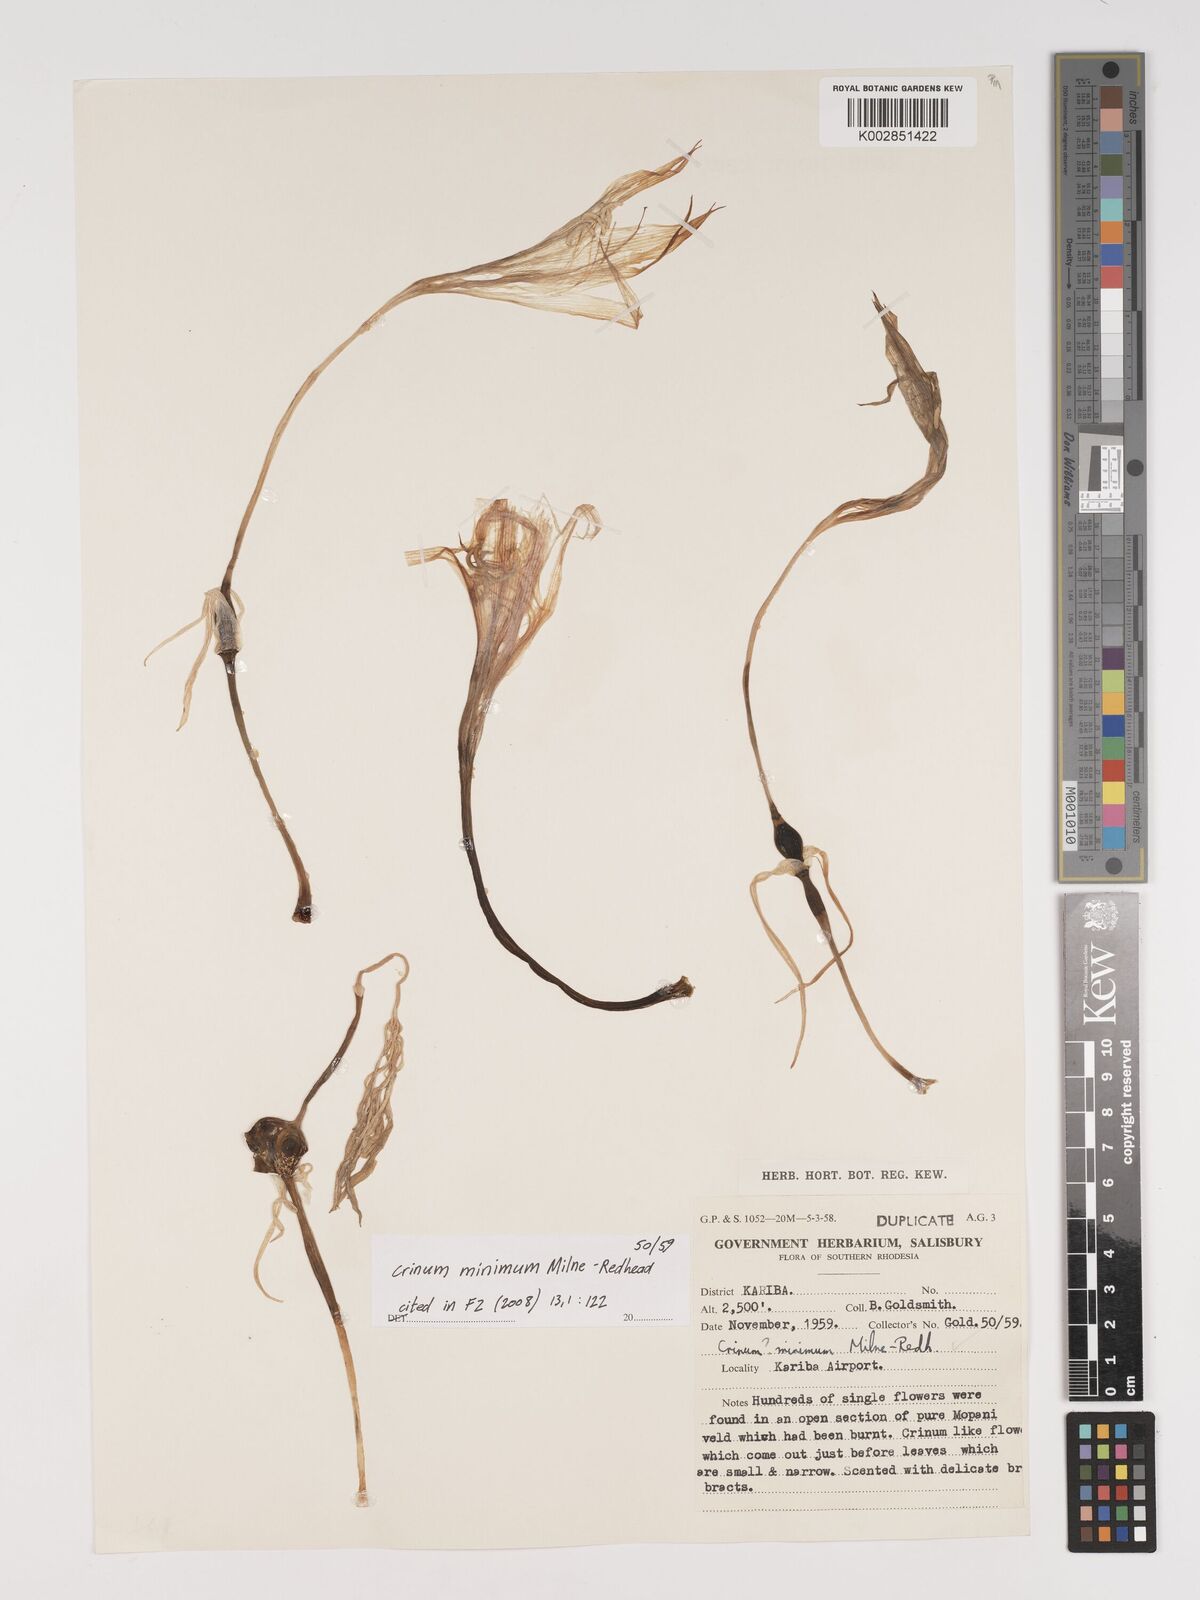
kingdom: Plantae
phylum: Tracheophyta
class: Liliopsida
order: Asparagales
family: Amaryllidaceae
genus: Crinum
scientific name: Crinum minimum
